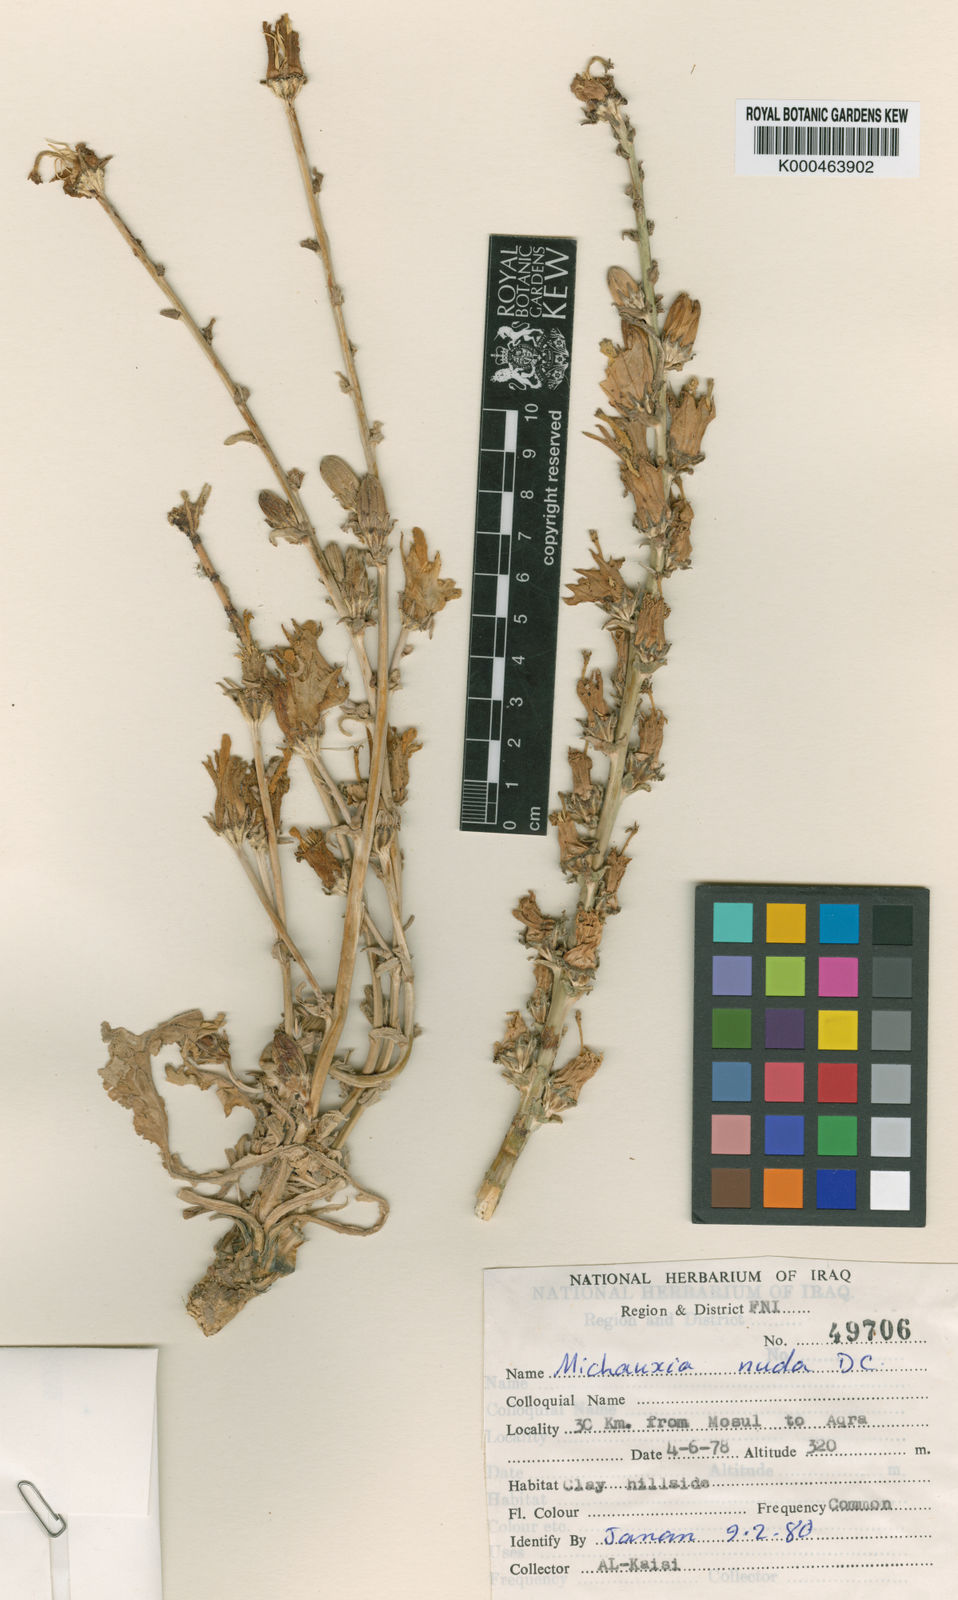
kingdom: Plantae
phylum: Tracheophyta
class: Magnoliopsida
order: Asterales
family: Campanulaceae
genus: Michauxia
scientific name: Michauxia nuda
